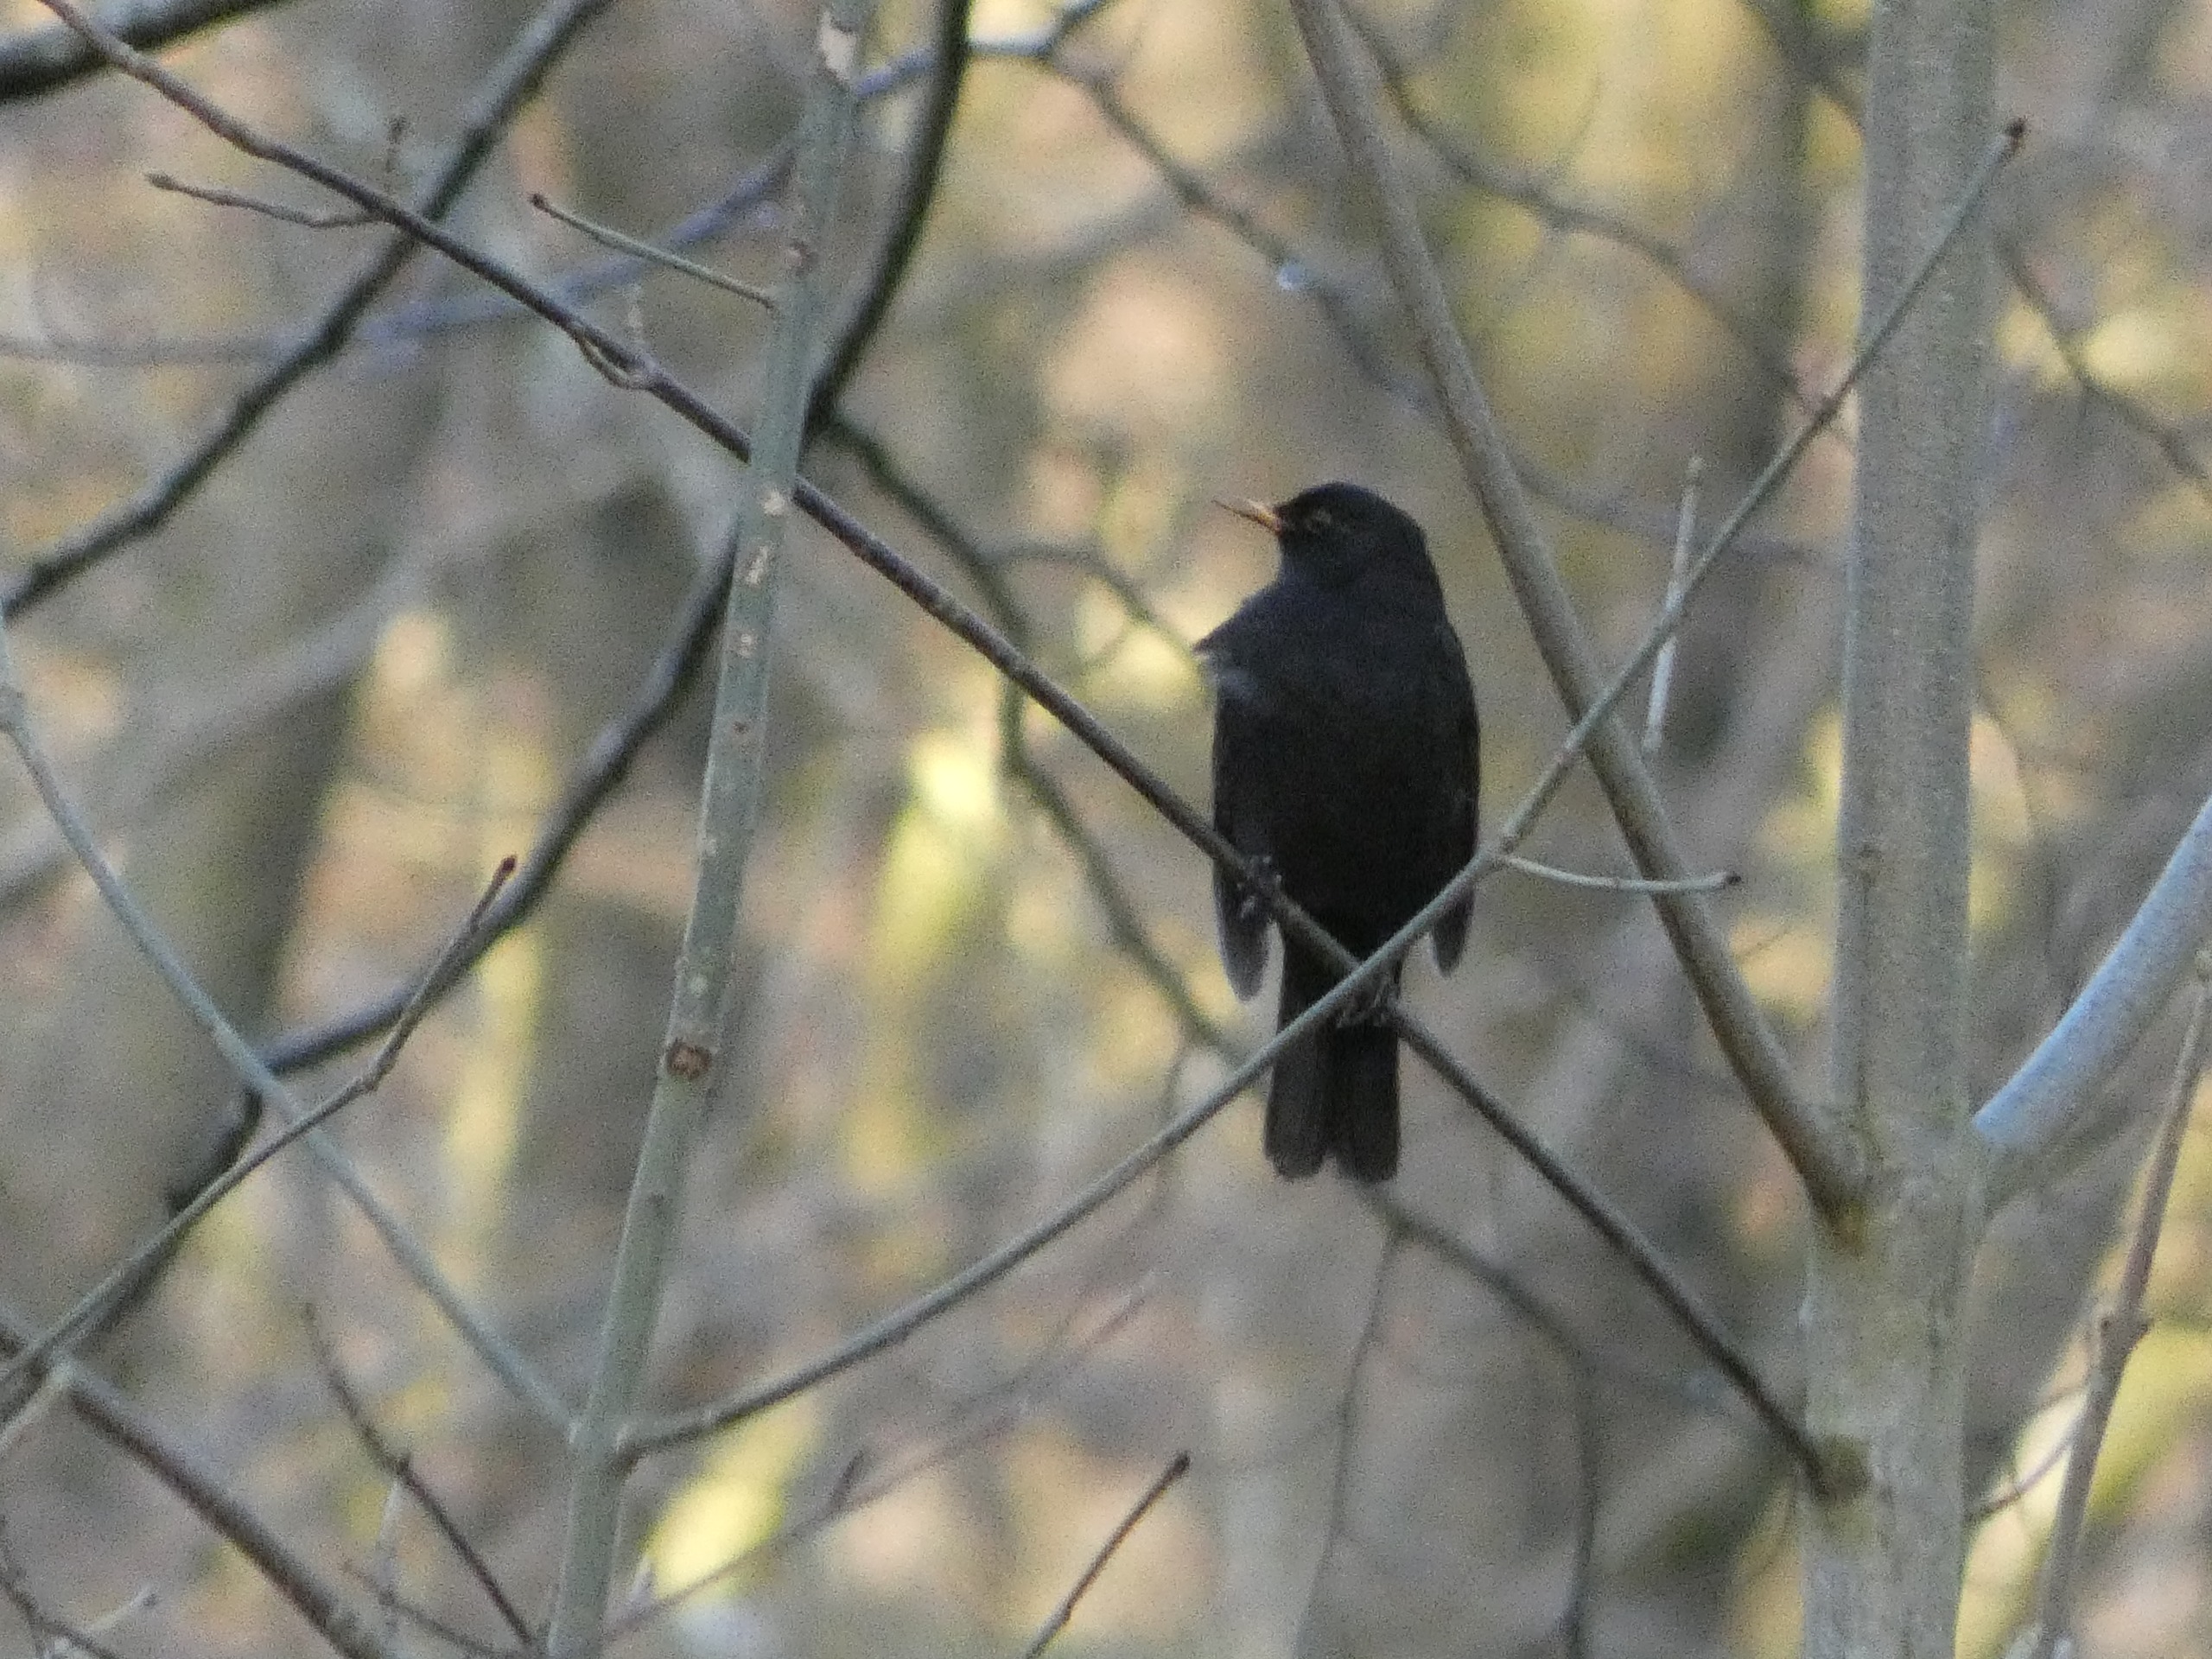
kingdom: Animalia
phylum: Chordata
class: Aves
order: Passeriformes
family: Turdidae
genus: Turdus
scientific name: Turdus merula
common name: Solsort
